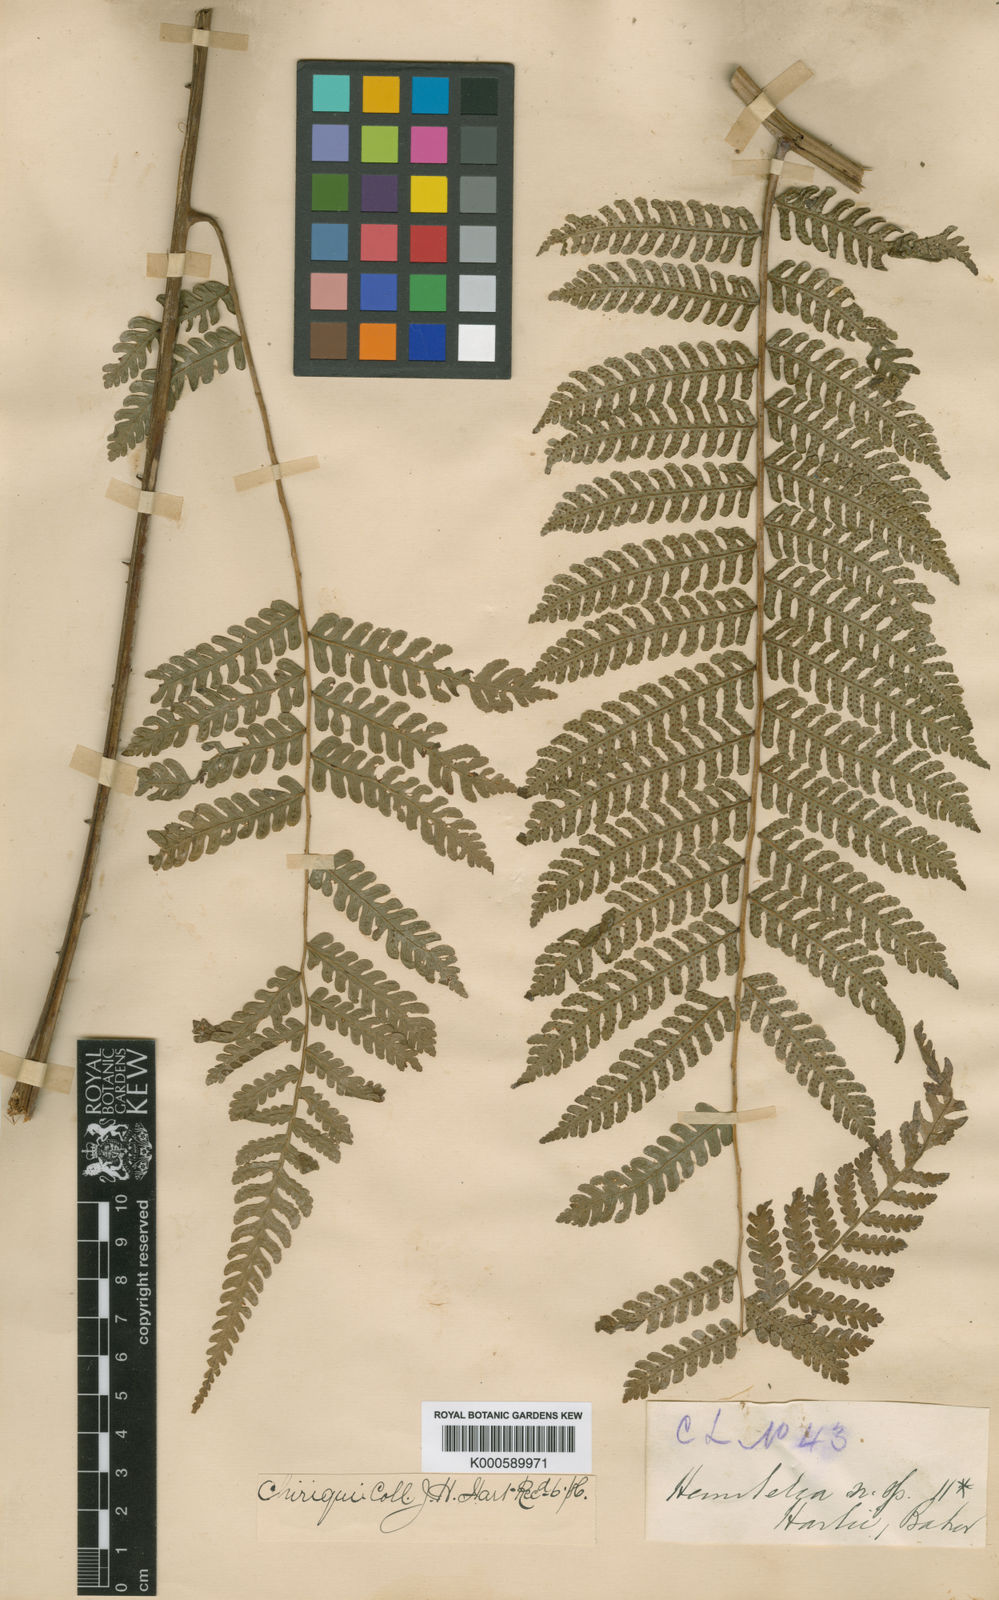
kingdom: Plantae
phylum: Tracheophyta
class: Polypodiopsida
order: Cyatheales
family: Cyatheaceae
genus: Cyathea
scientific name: Cyathea multiflora
